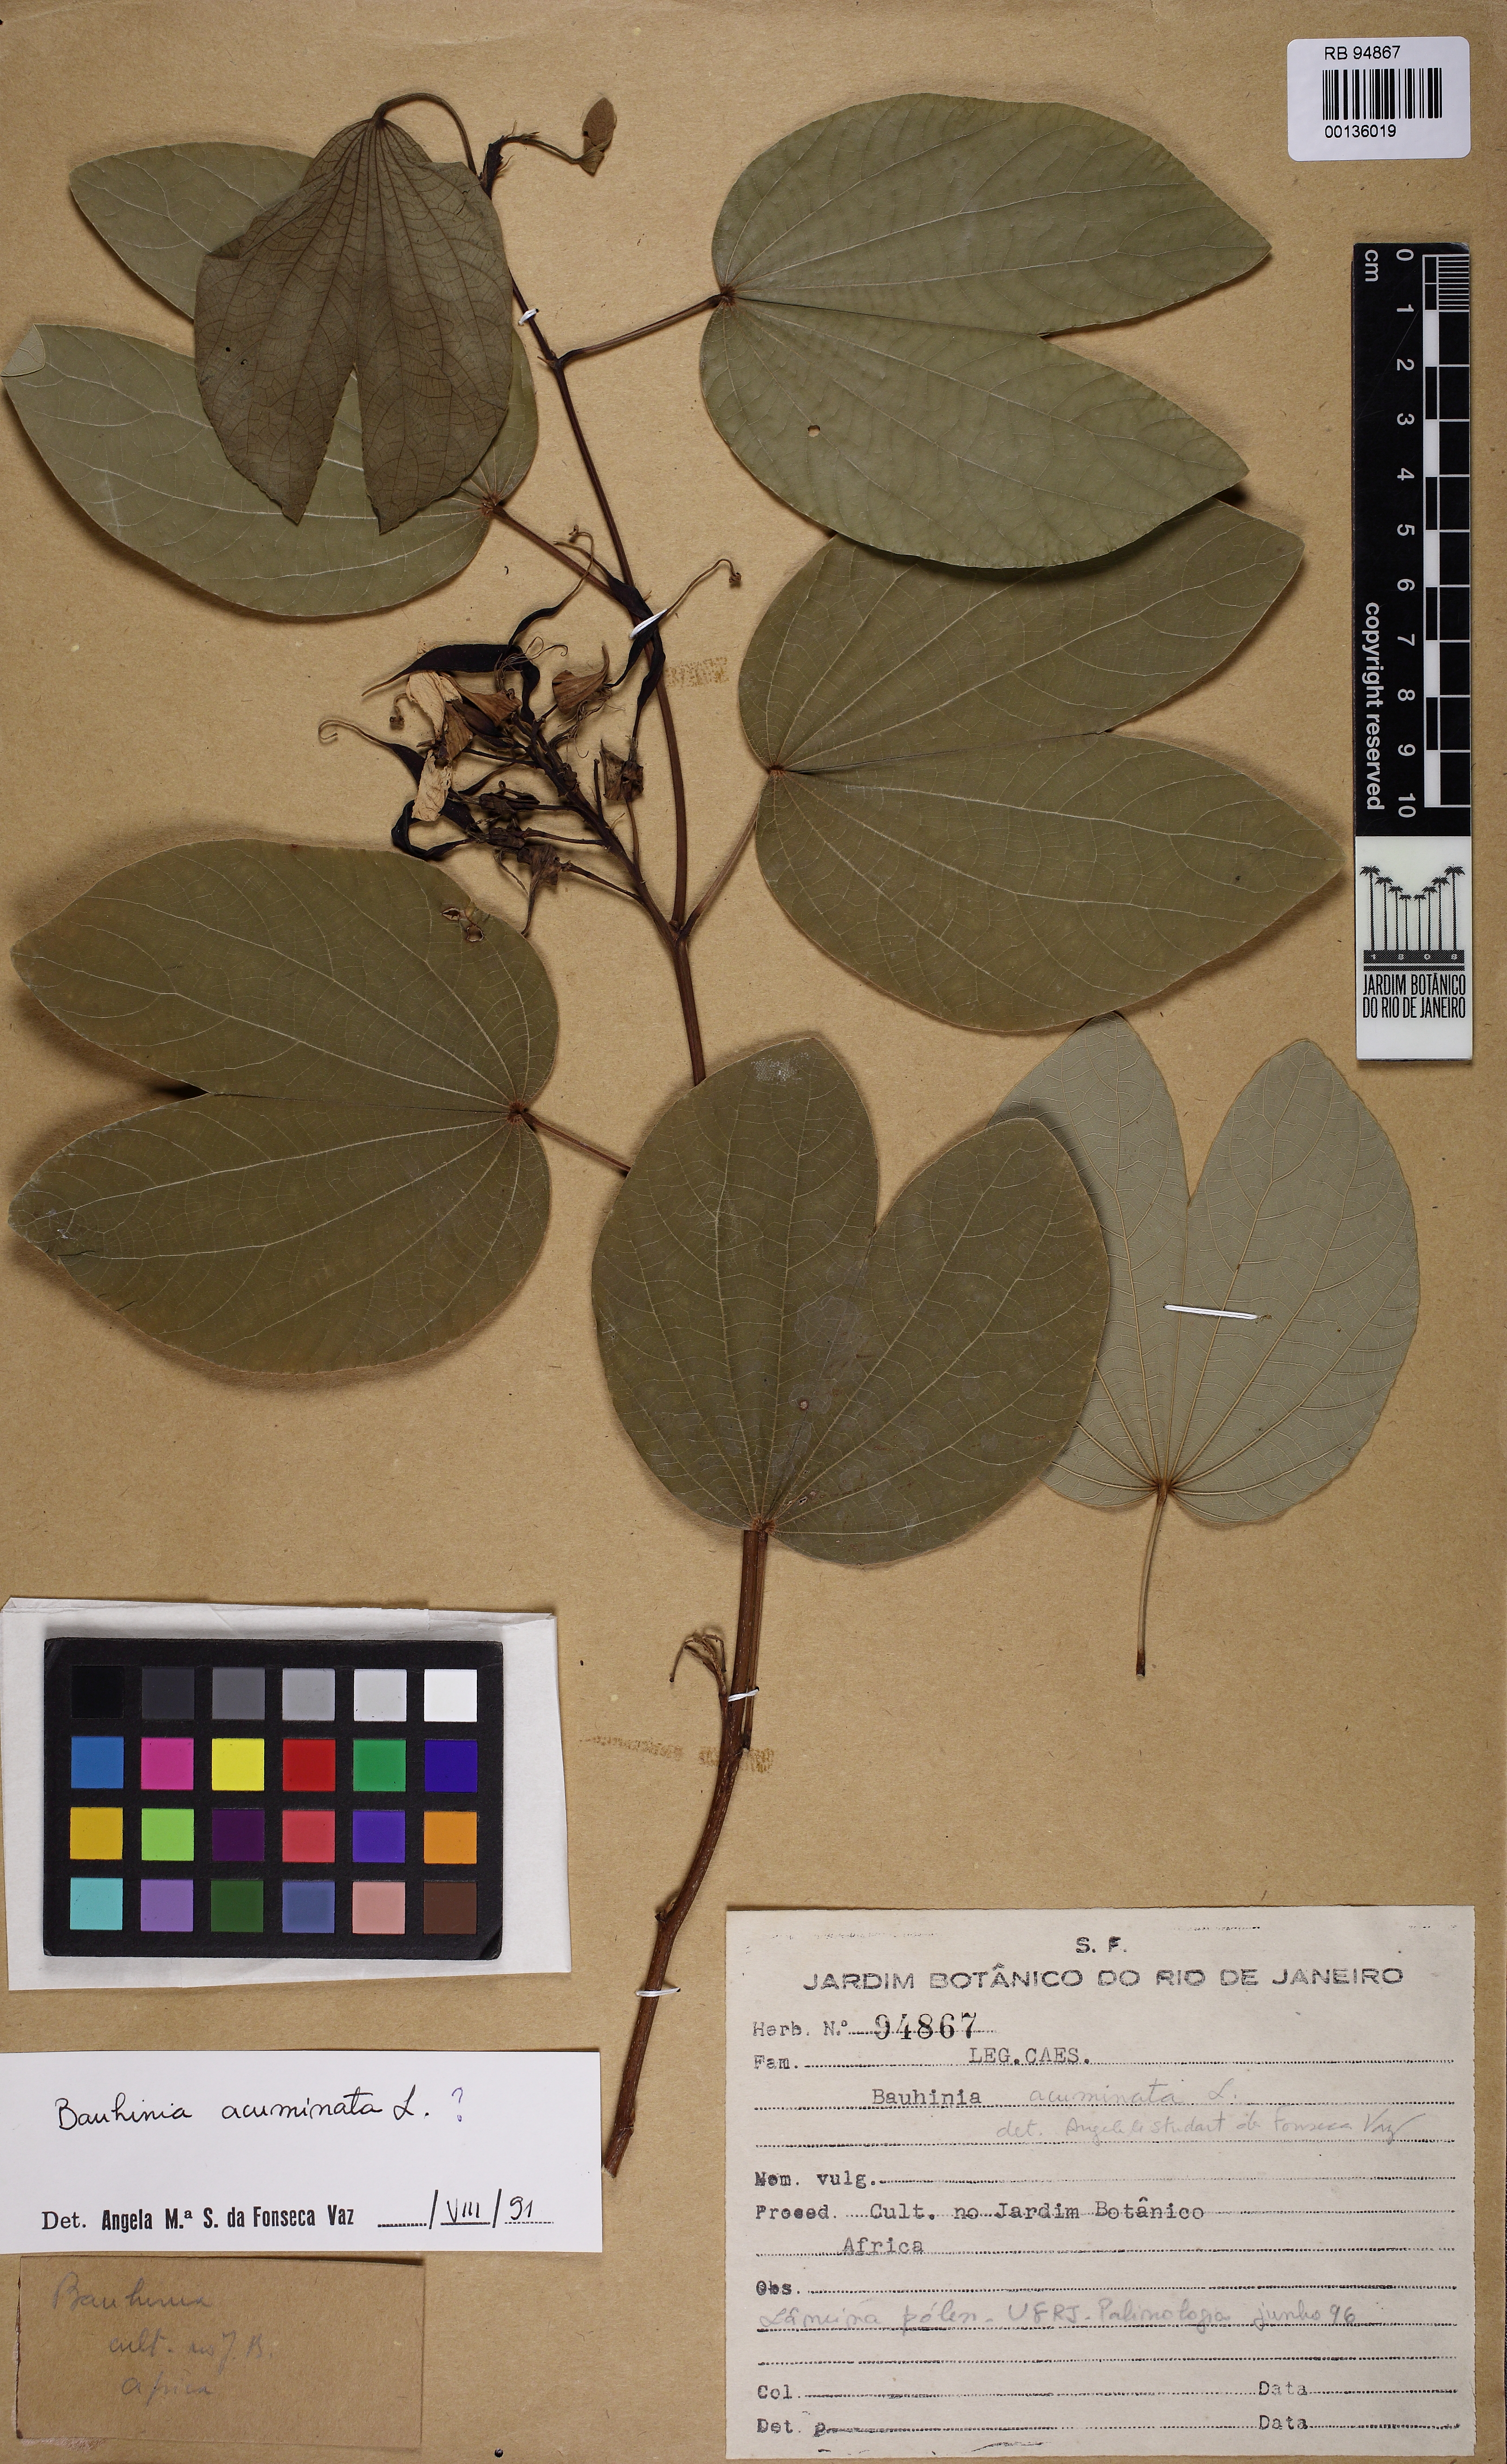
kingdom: Plantae
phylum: Tracheophyta
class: Magnoliopsida
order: Fabales
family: Fabaceae
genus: Schnella
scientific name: Schnella macrostachya
